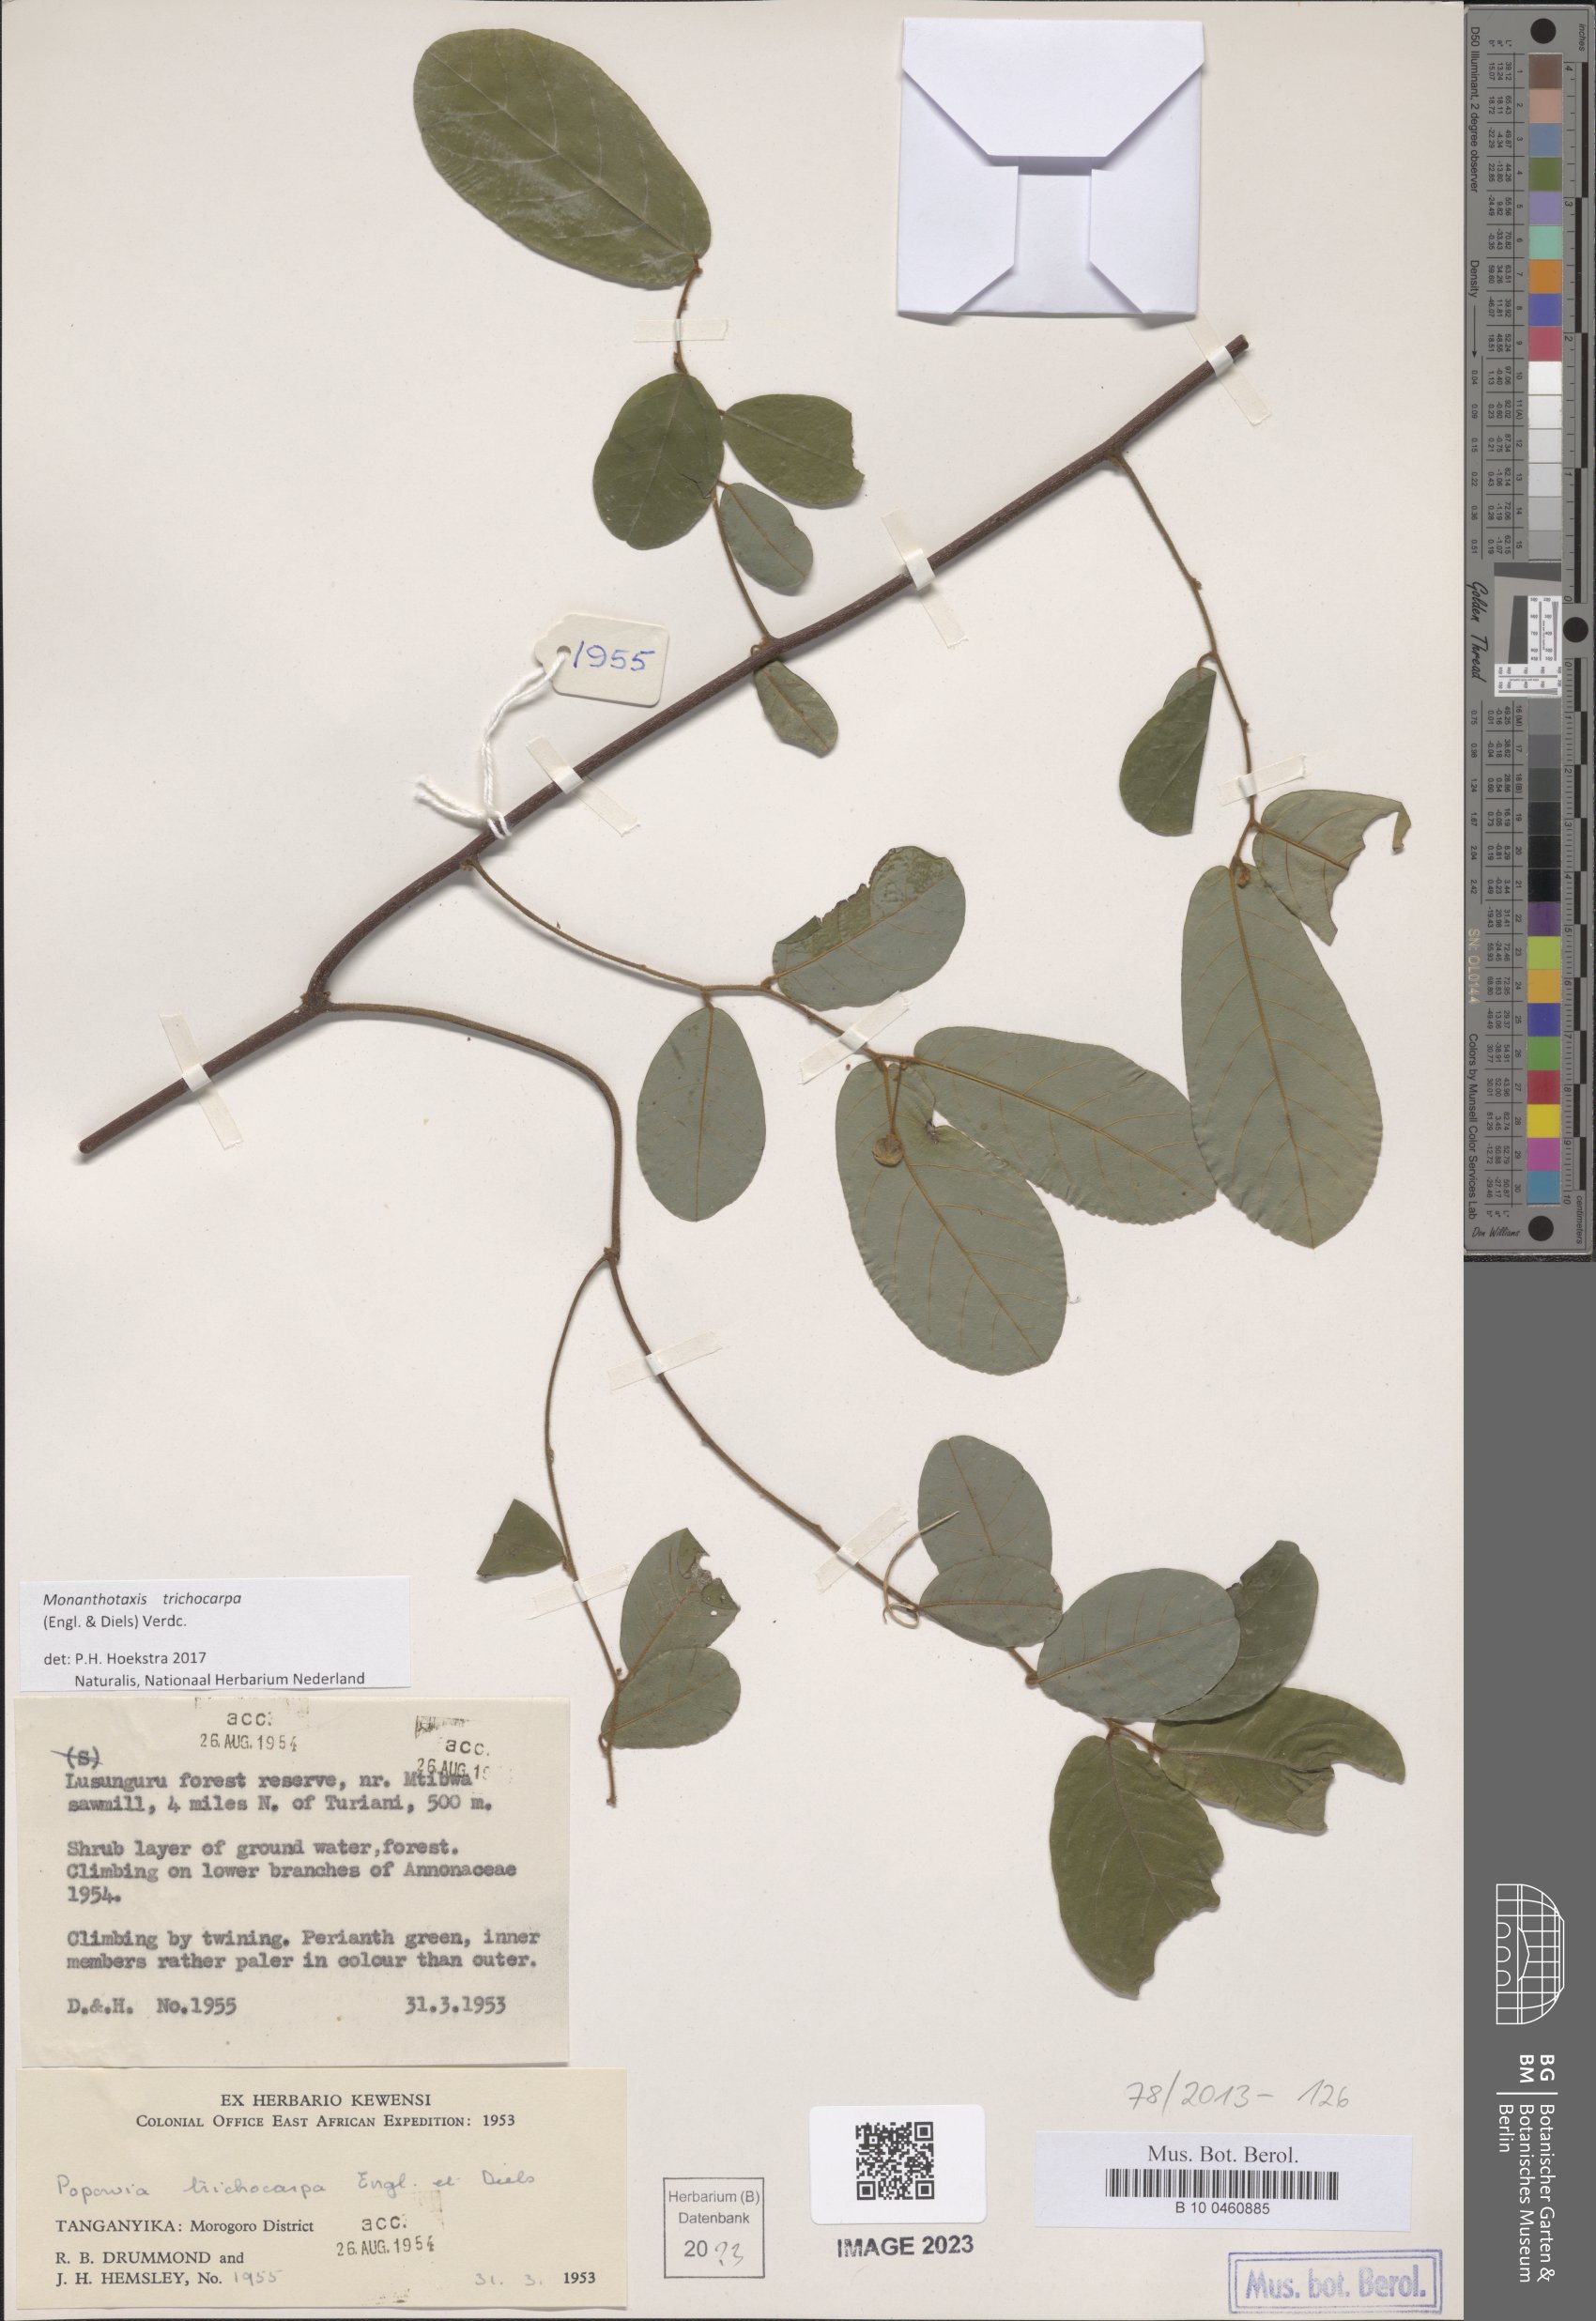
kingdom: Plantae
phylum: Tracheophyta
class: Magnoliopsida
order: Magnoliales
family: Annonaceae
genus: Monanthotaxis
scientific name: Monanthotaxis trichocarpa
